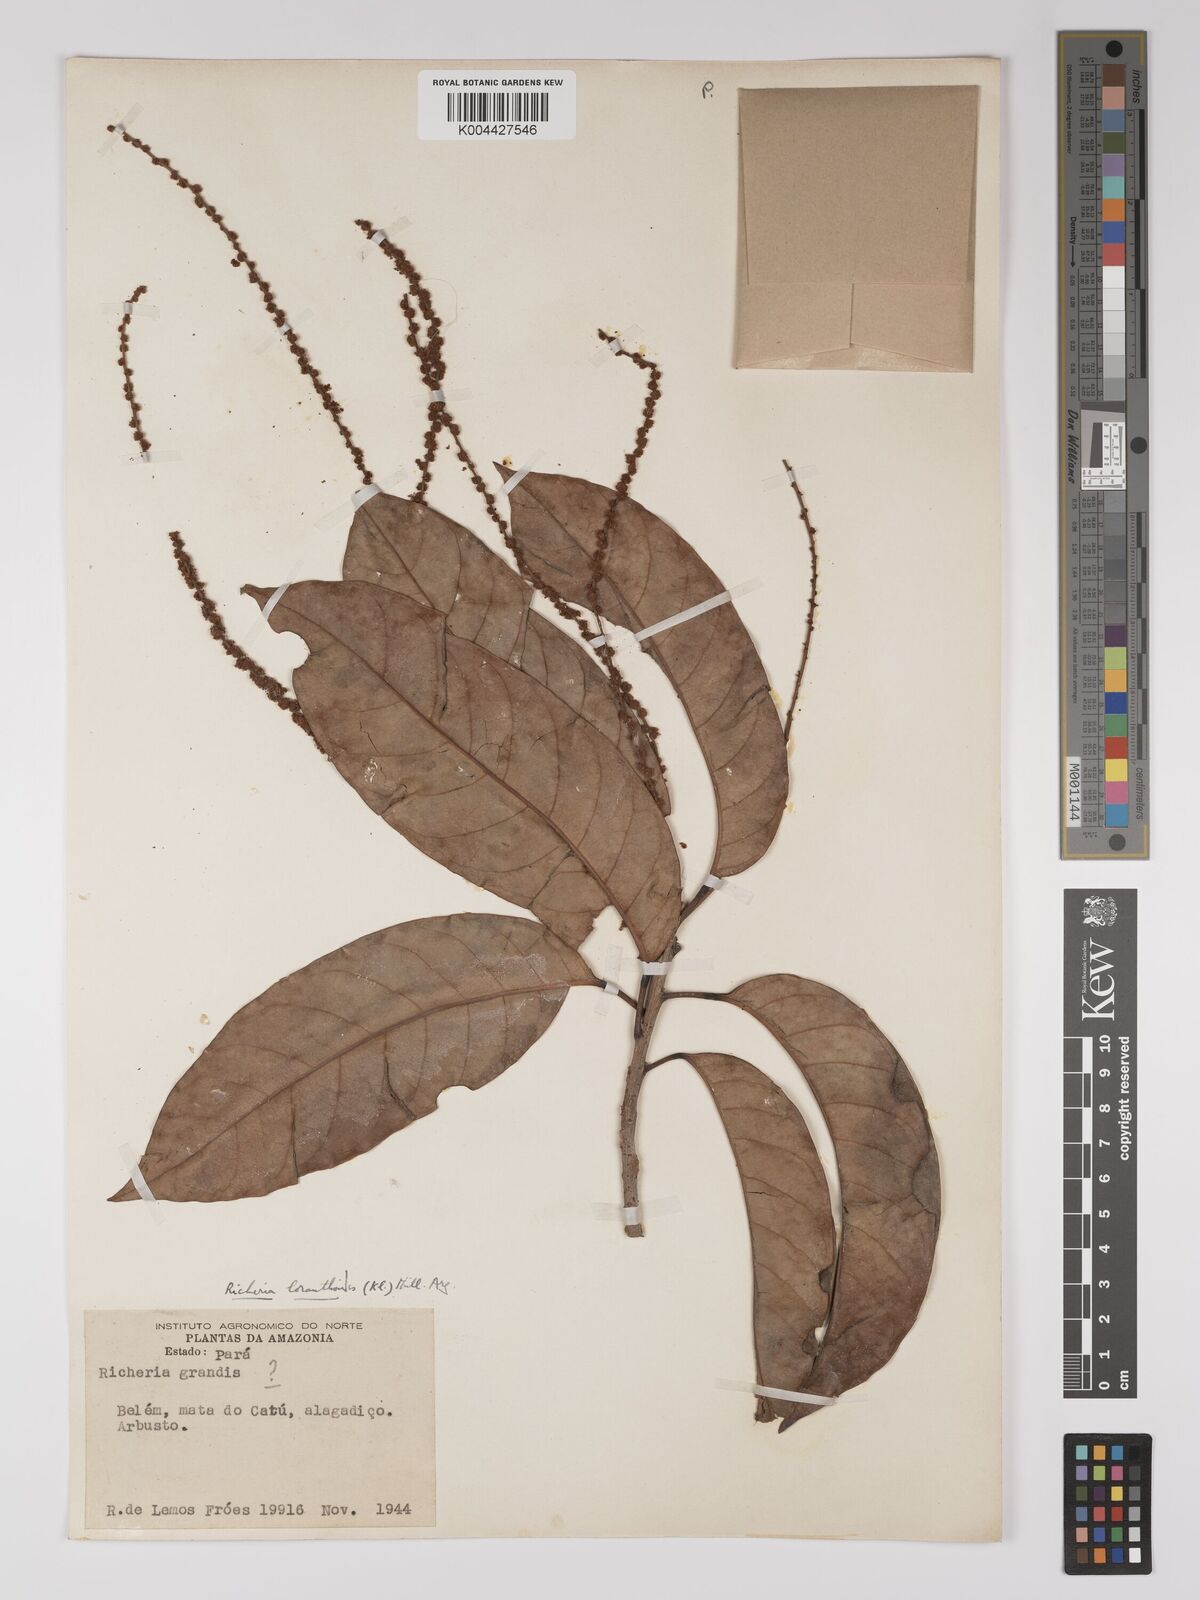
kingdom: Plantae
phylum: Tracheophyta
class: Magnoliopsida
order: Malpighiales
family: Picrodendraceae
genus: Podocalyx
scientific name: Podocalyx loranthoides
